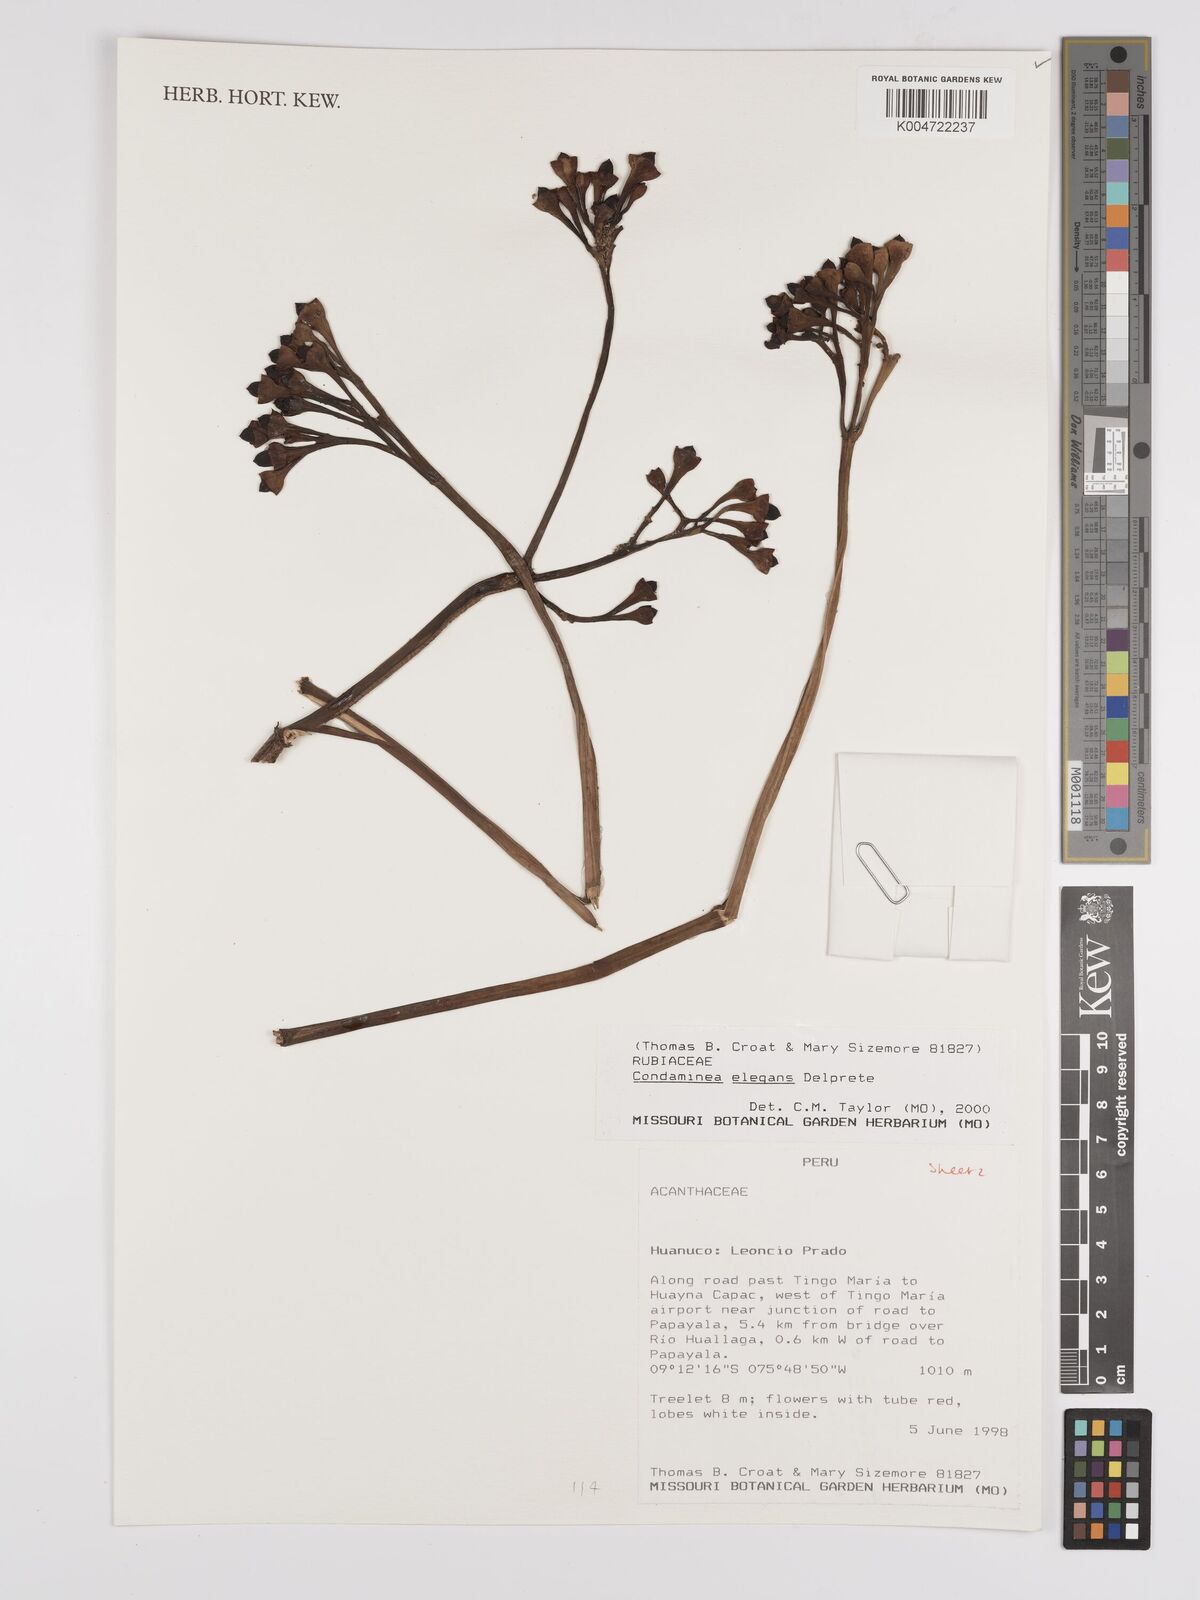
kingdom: Plantae
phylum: Tracheophyta
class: Magnoliopsida
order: Gentianales
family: Rubiaceae
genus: Condaminea
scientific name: Condaminea elegans
